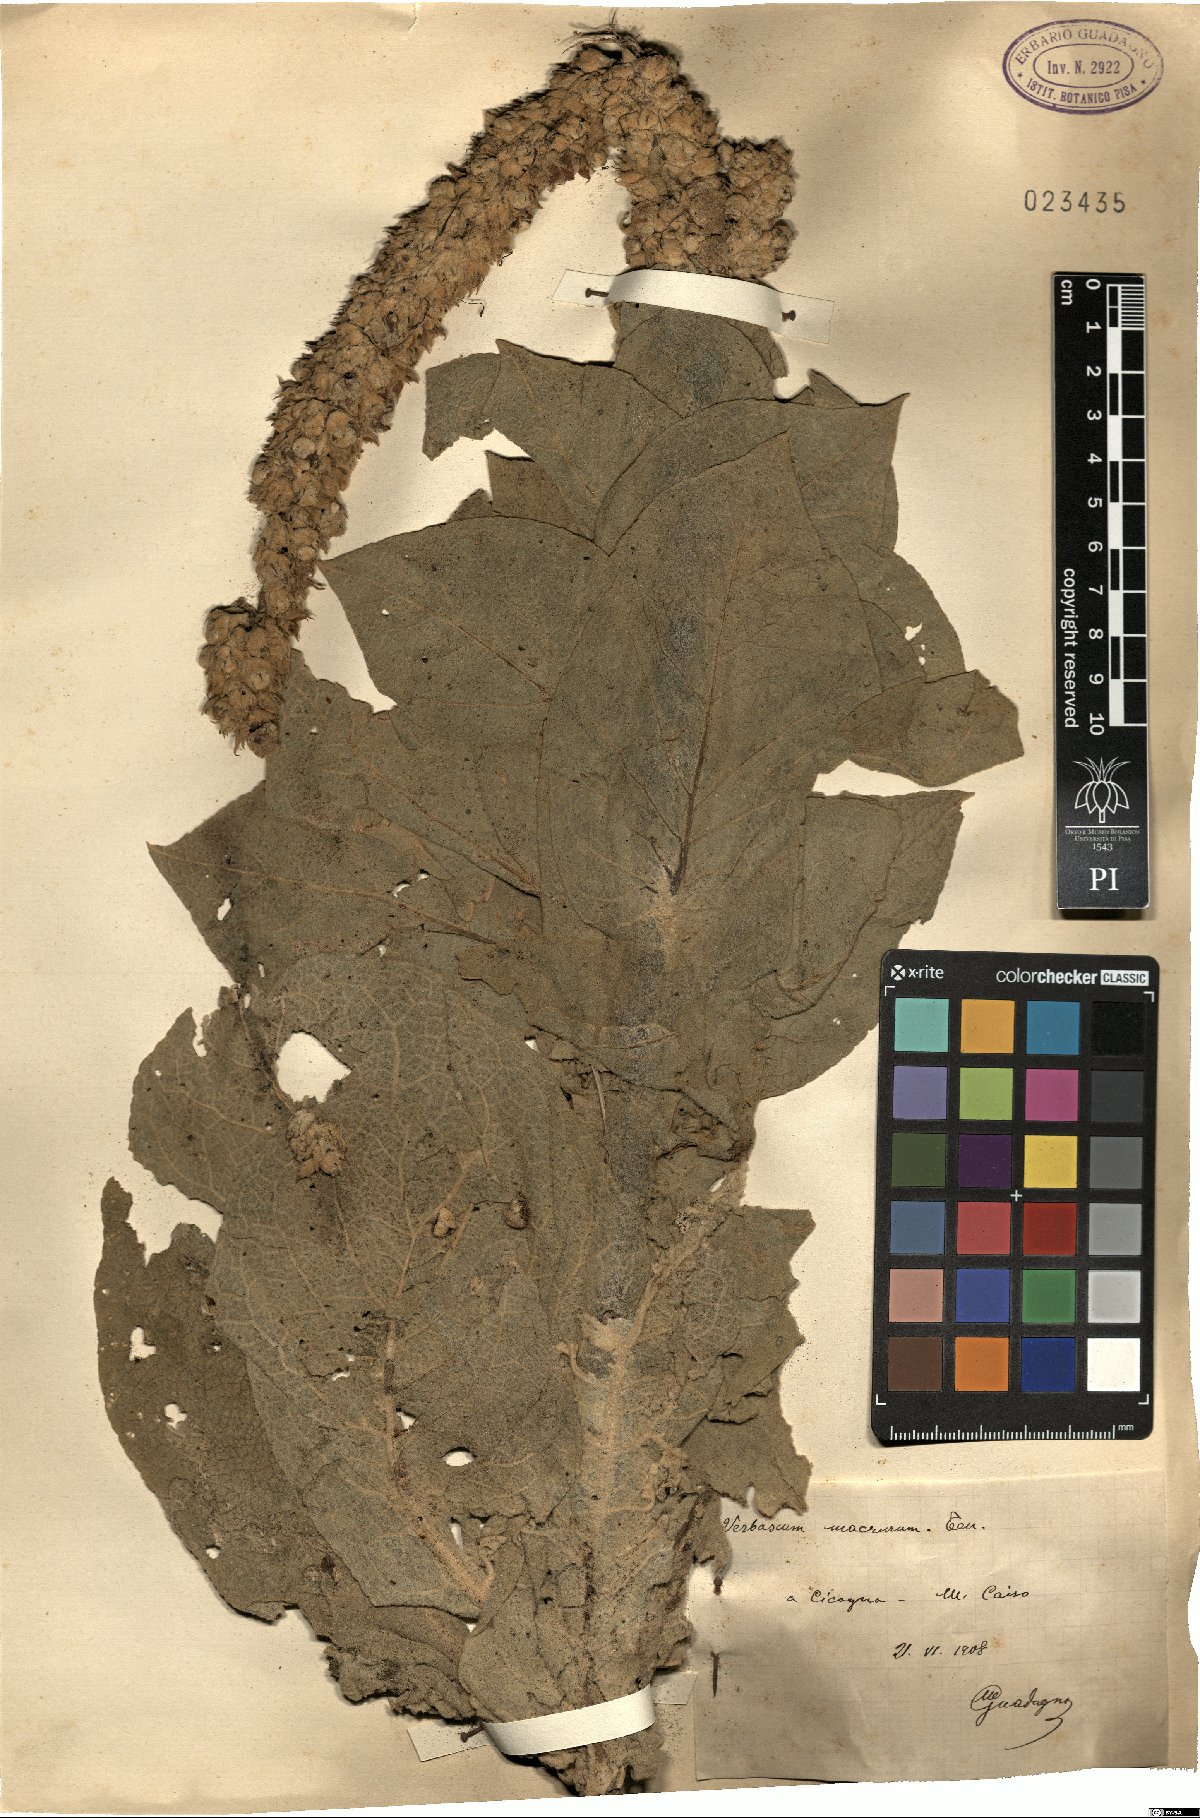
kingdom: Plantae
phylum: Tracheophyta
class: Magnoliopsida
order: Lamiales
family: Scrophulariaceae
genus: Verbascum
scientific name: Verbascum macrurum
